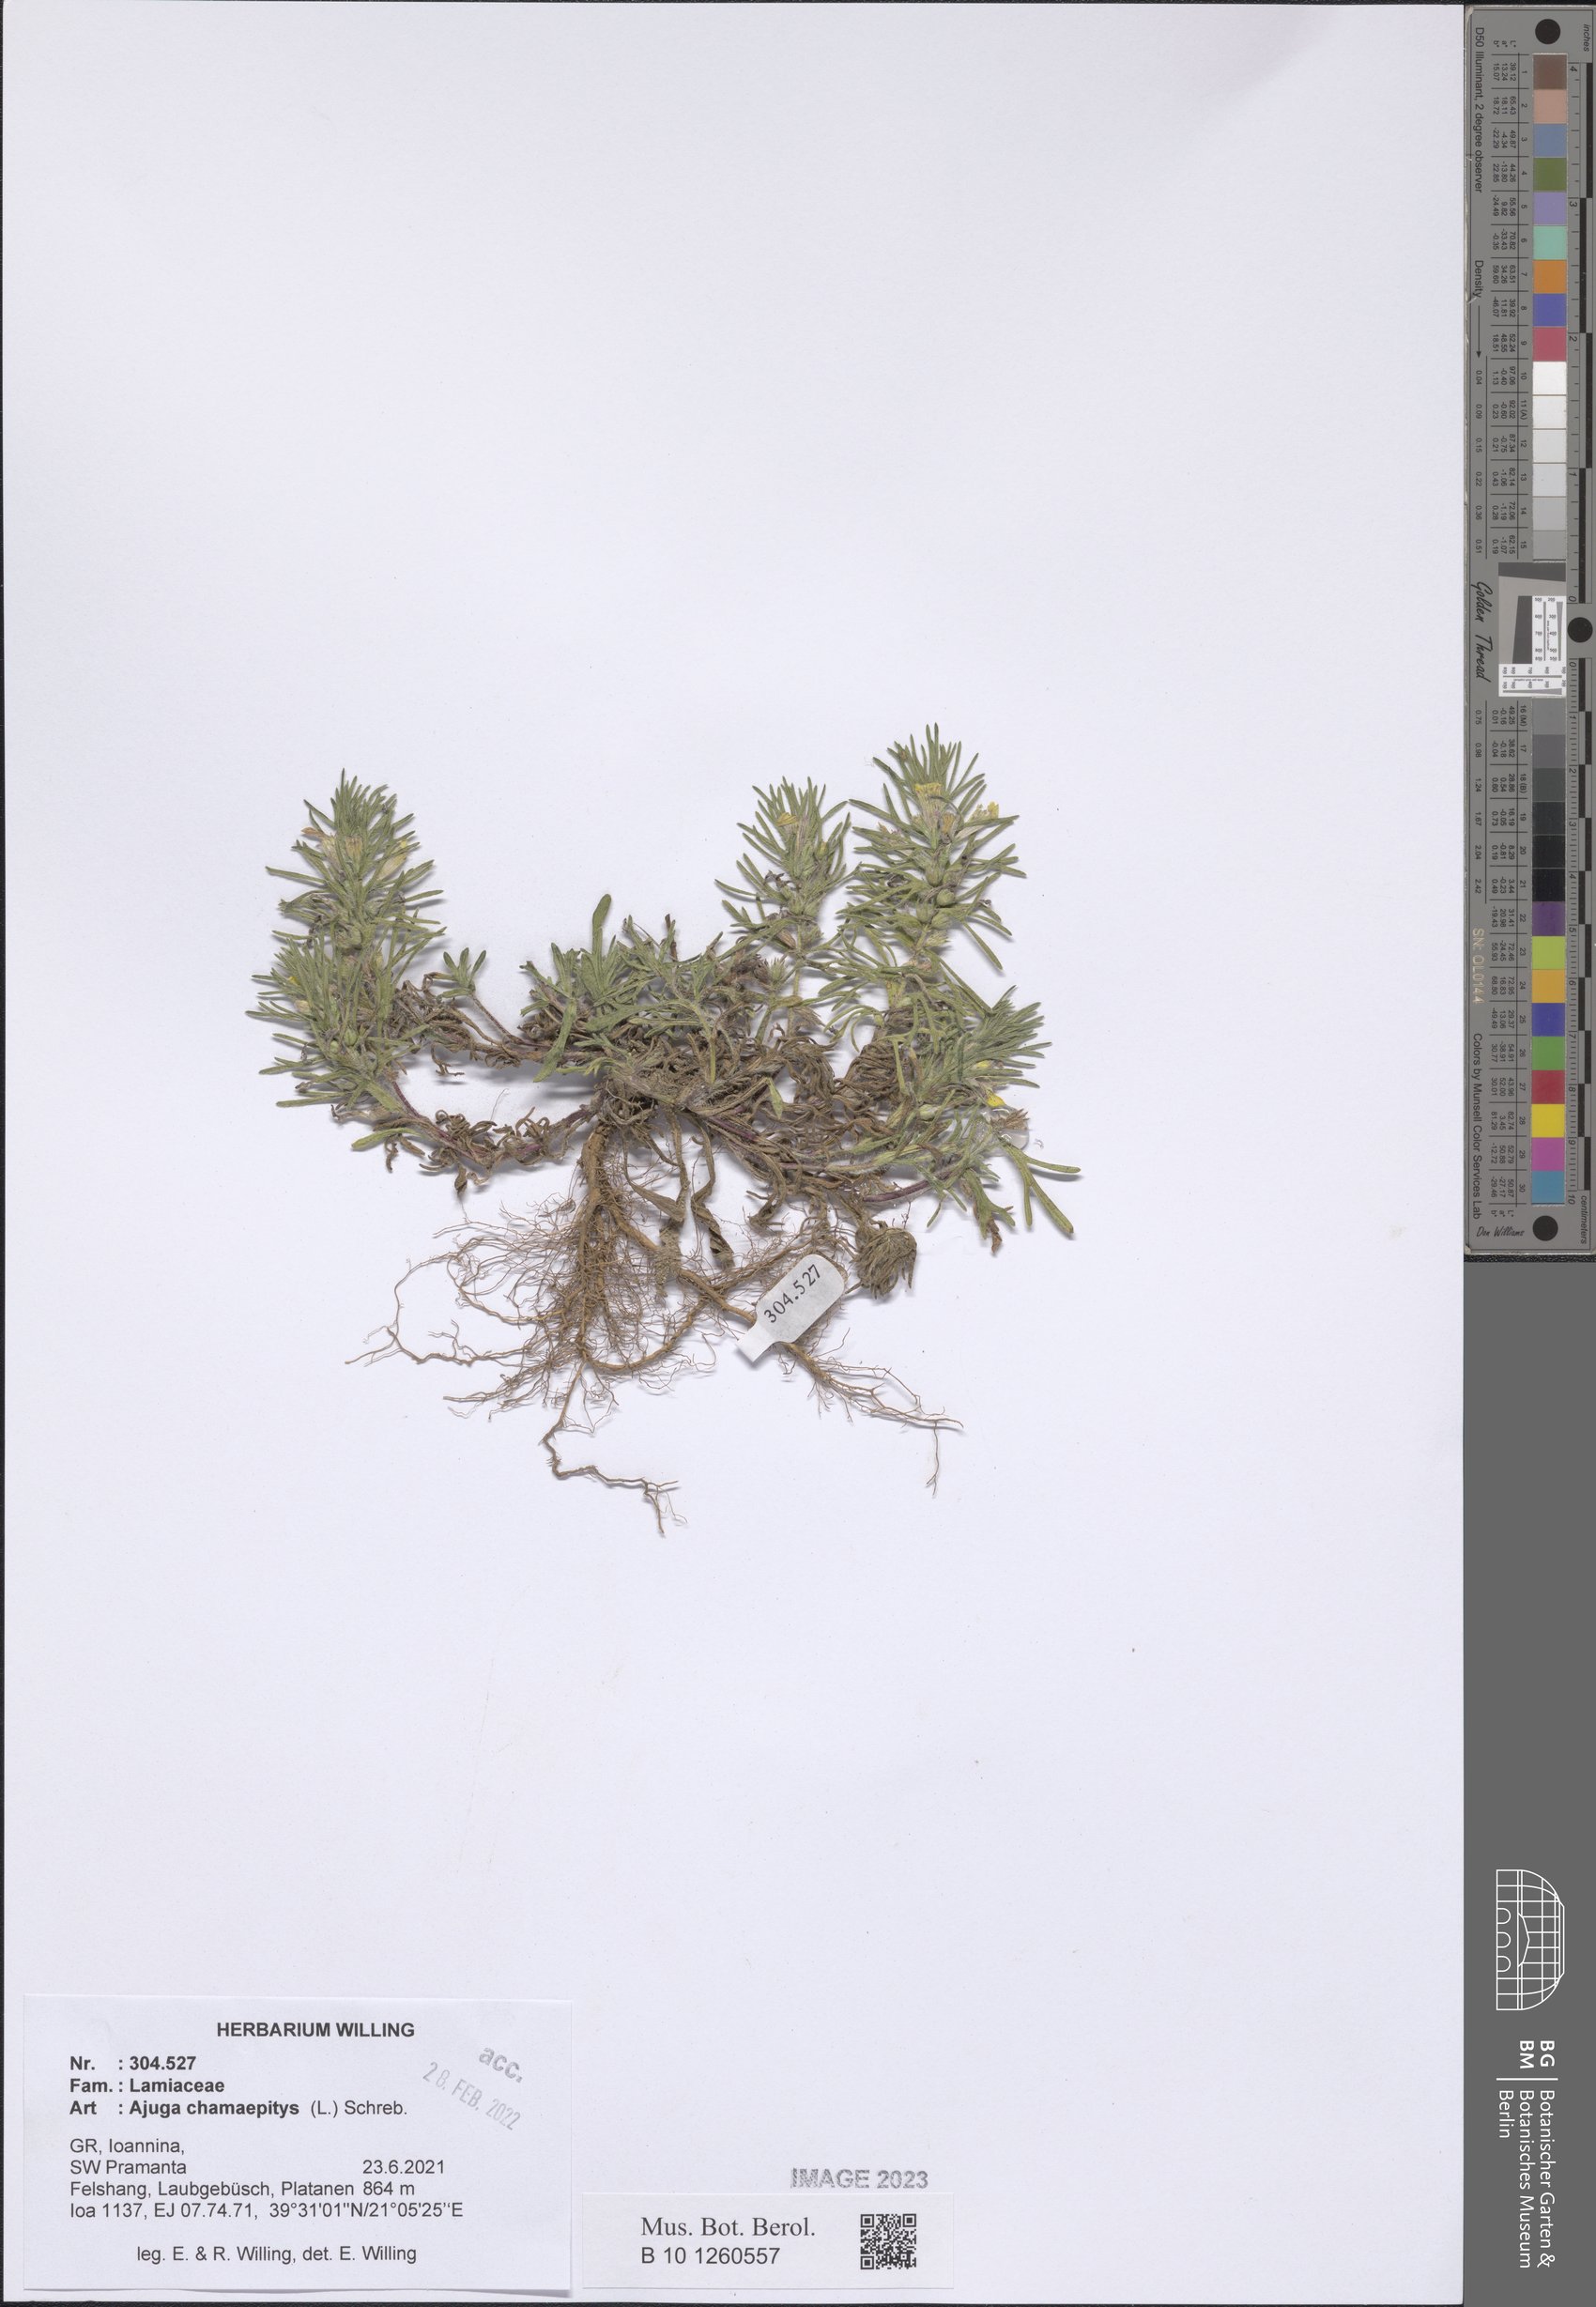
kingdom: Plantae
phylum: Tracheophyta
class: Magnoliopsida
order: Lamiales
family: Lamiaceae
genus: Ajuga
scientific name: Ajuga chamaepitys
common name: Ground-pine
